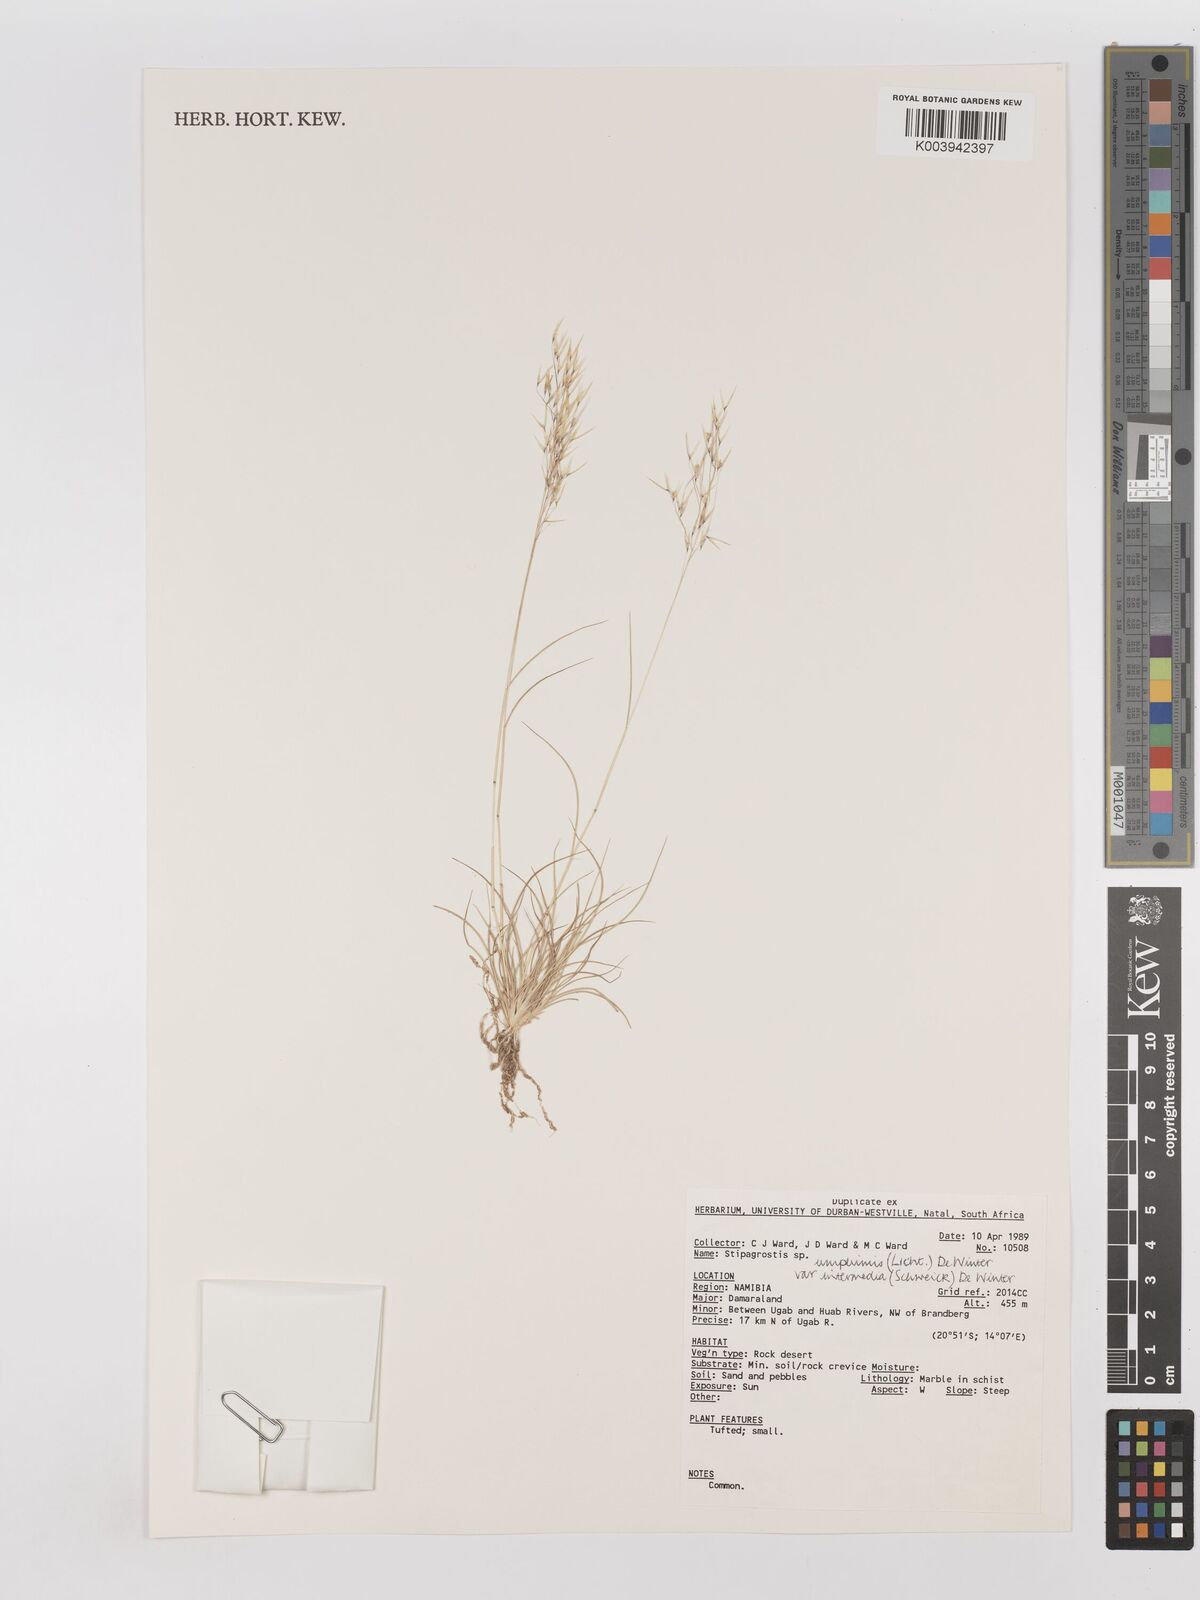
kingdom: Plantae
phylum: Tracheophyta
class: Liliopsida
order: Poales
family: Poaceae
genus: Stipagrostis
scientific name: Stipagrostis uniplumis
